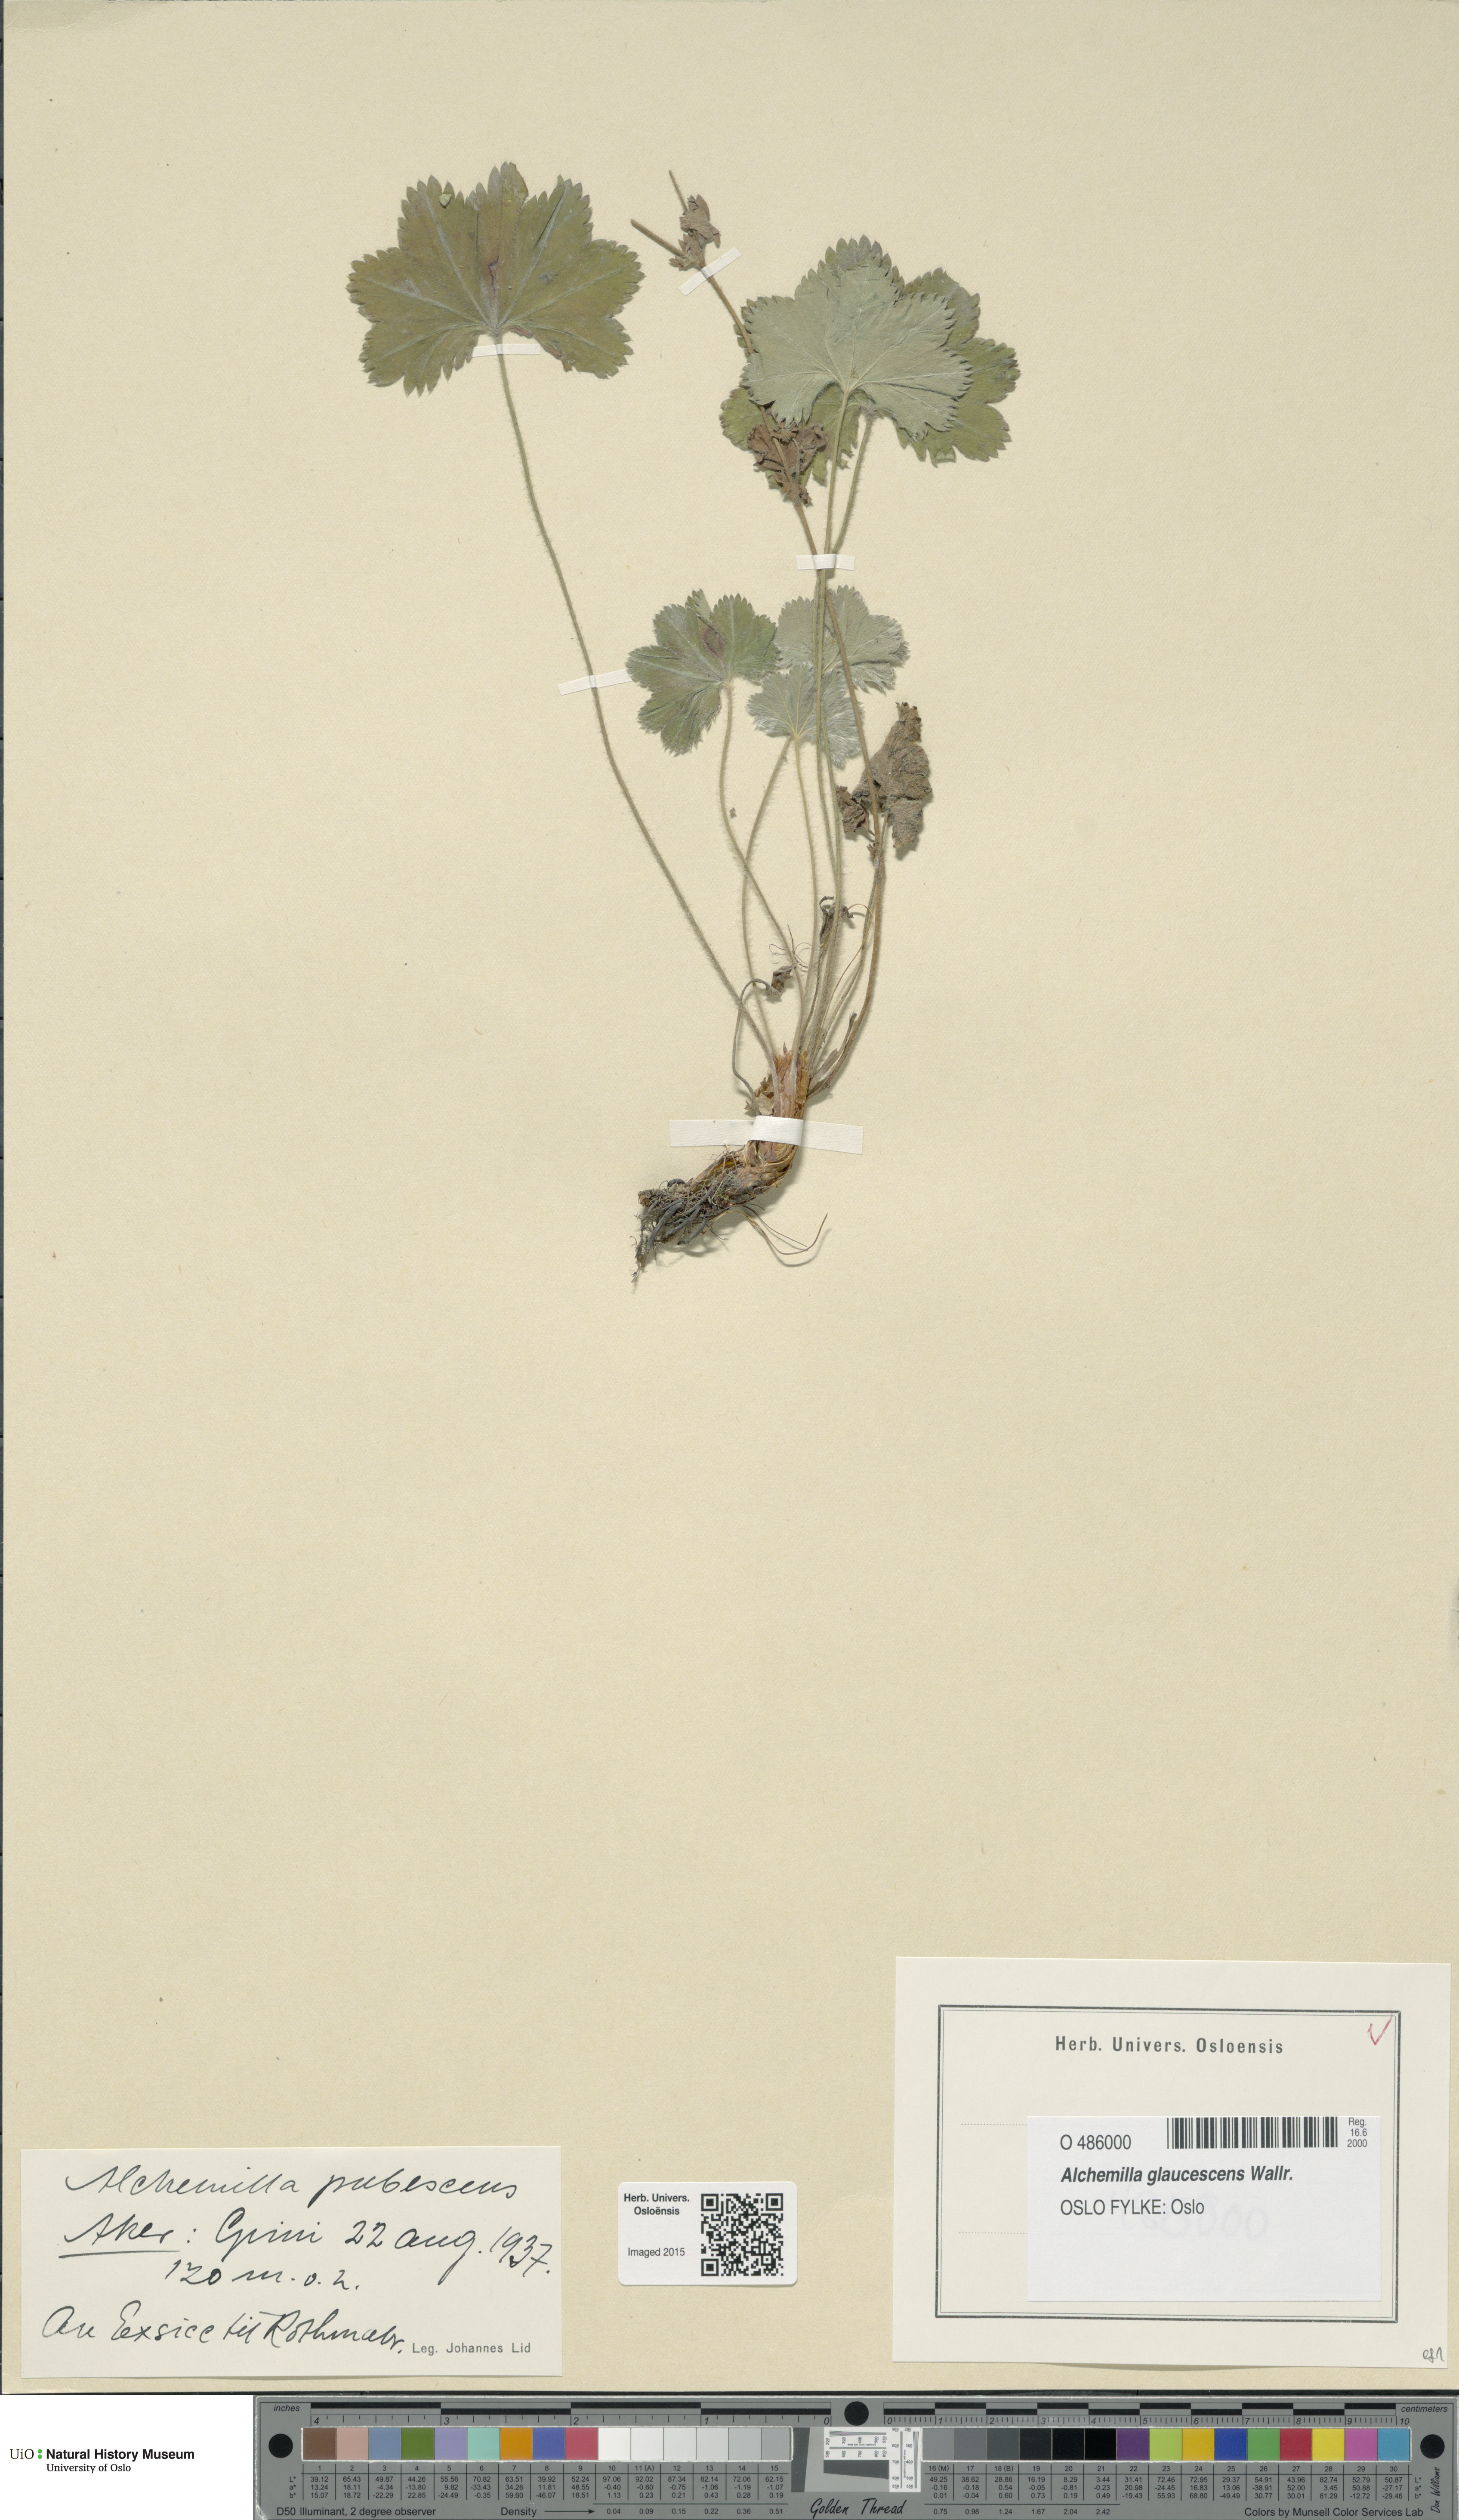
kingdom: Plantae
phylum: Tracheophyta
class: Magnoliopsida
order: Rosales
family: Rosaceae
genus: Alchemilla
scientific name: Alchemilla glaucescens
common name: Silky lady's mantle
